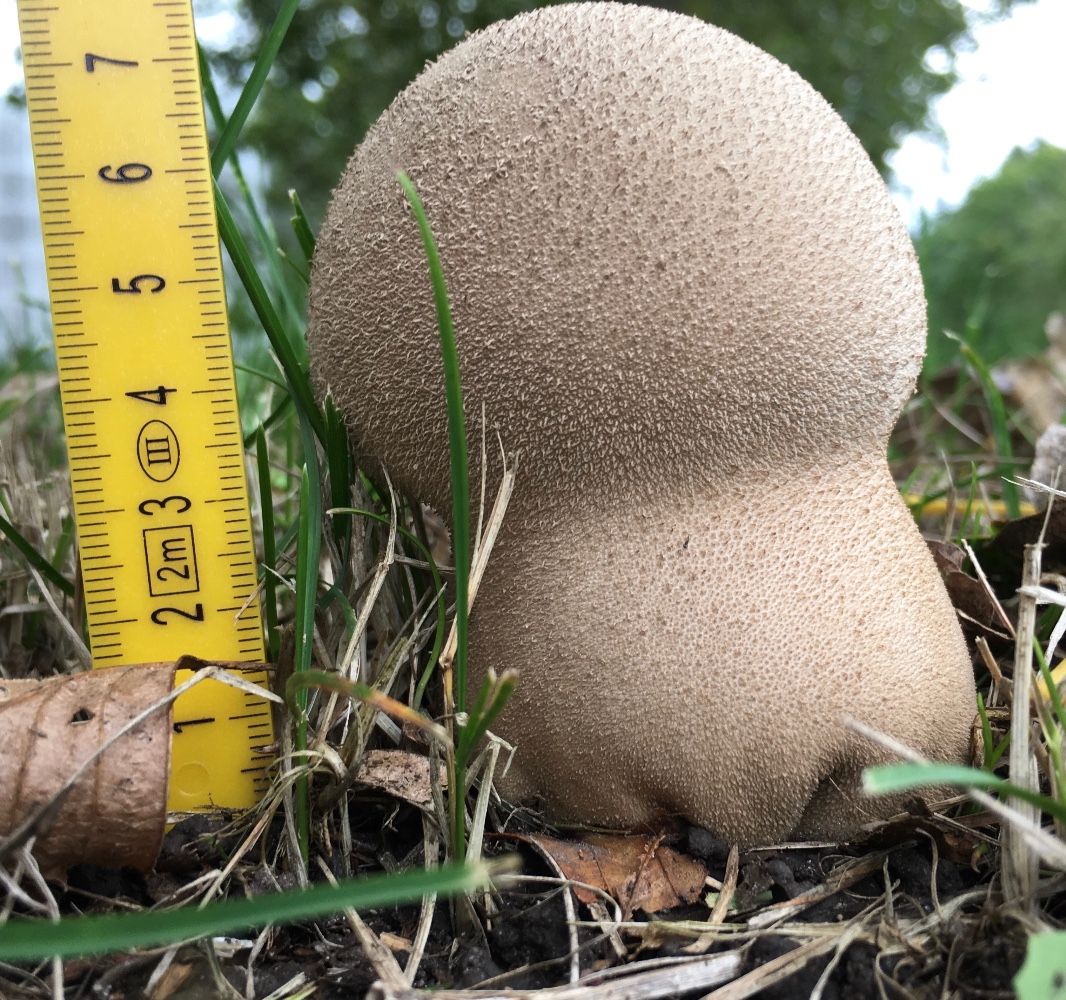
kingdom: Fungi
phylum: Basidiomycota
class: Agaricomycetes
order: Agaricales
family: Lycoperdaceae
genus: Lycoperdon
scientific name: Lycoperdon excipuliforme
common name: højstokket støvbold
